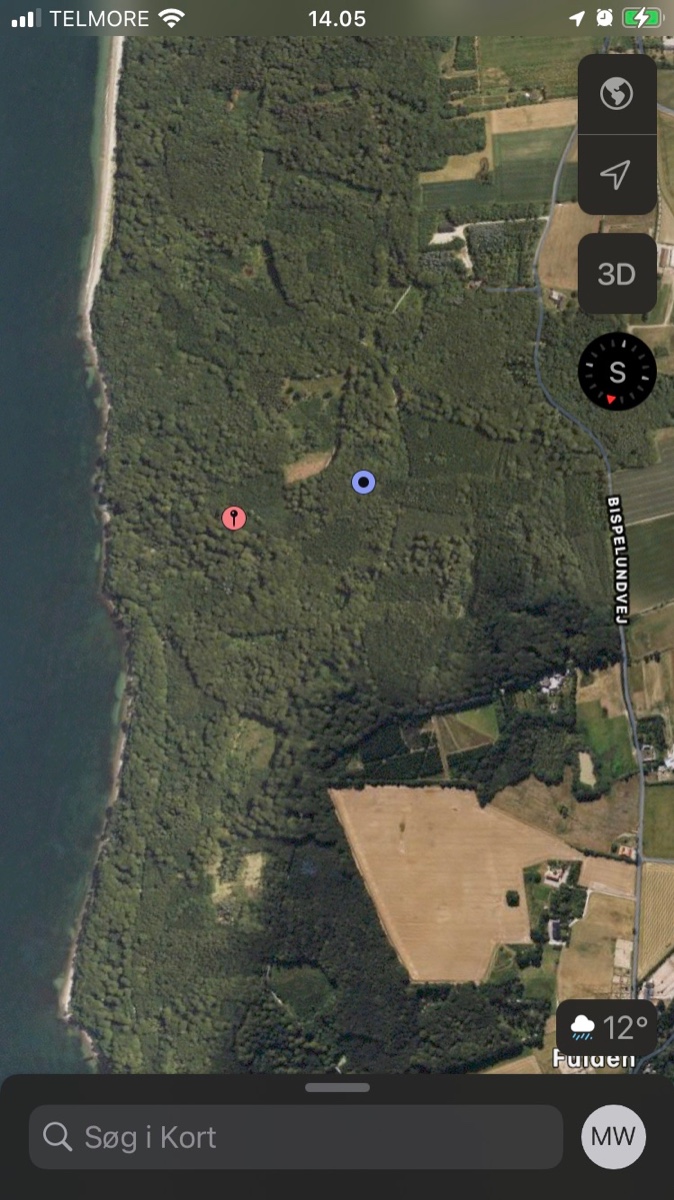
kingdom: Fungi
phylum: Basidiomycota
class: Agaricomycetes
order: Cantharellales
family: Hydnaceae
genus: Craterellus
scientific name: Craterellus cornucopioides
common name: trompetsvamp
